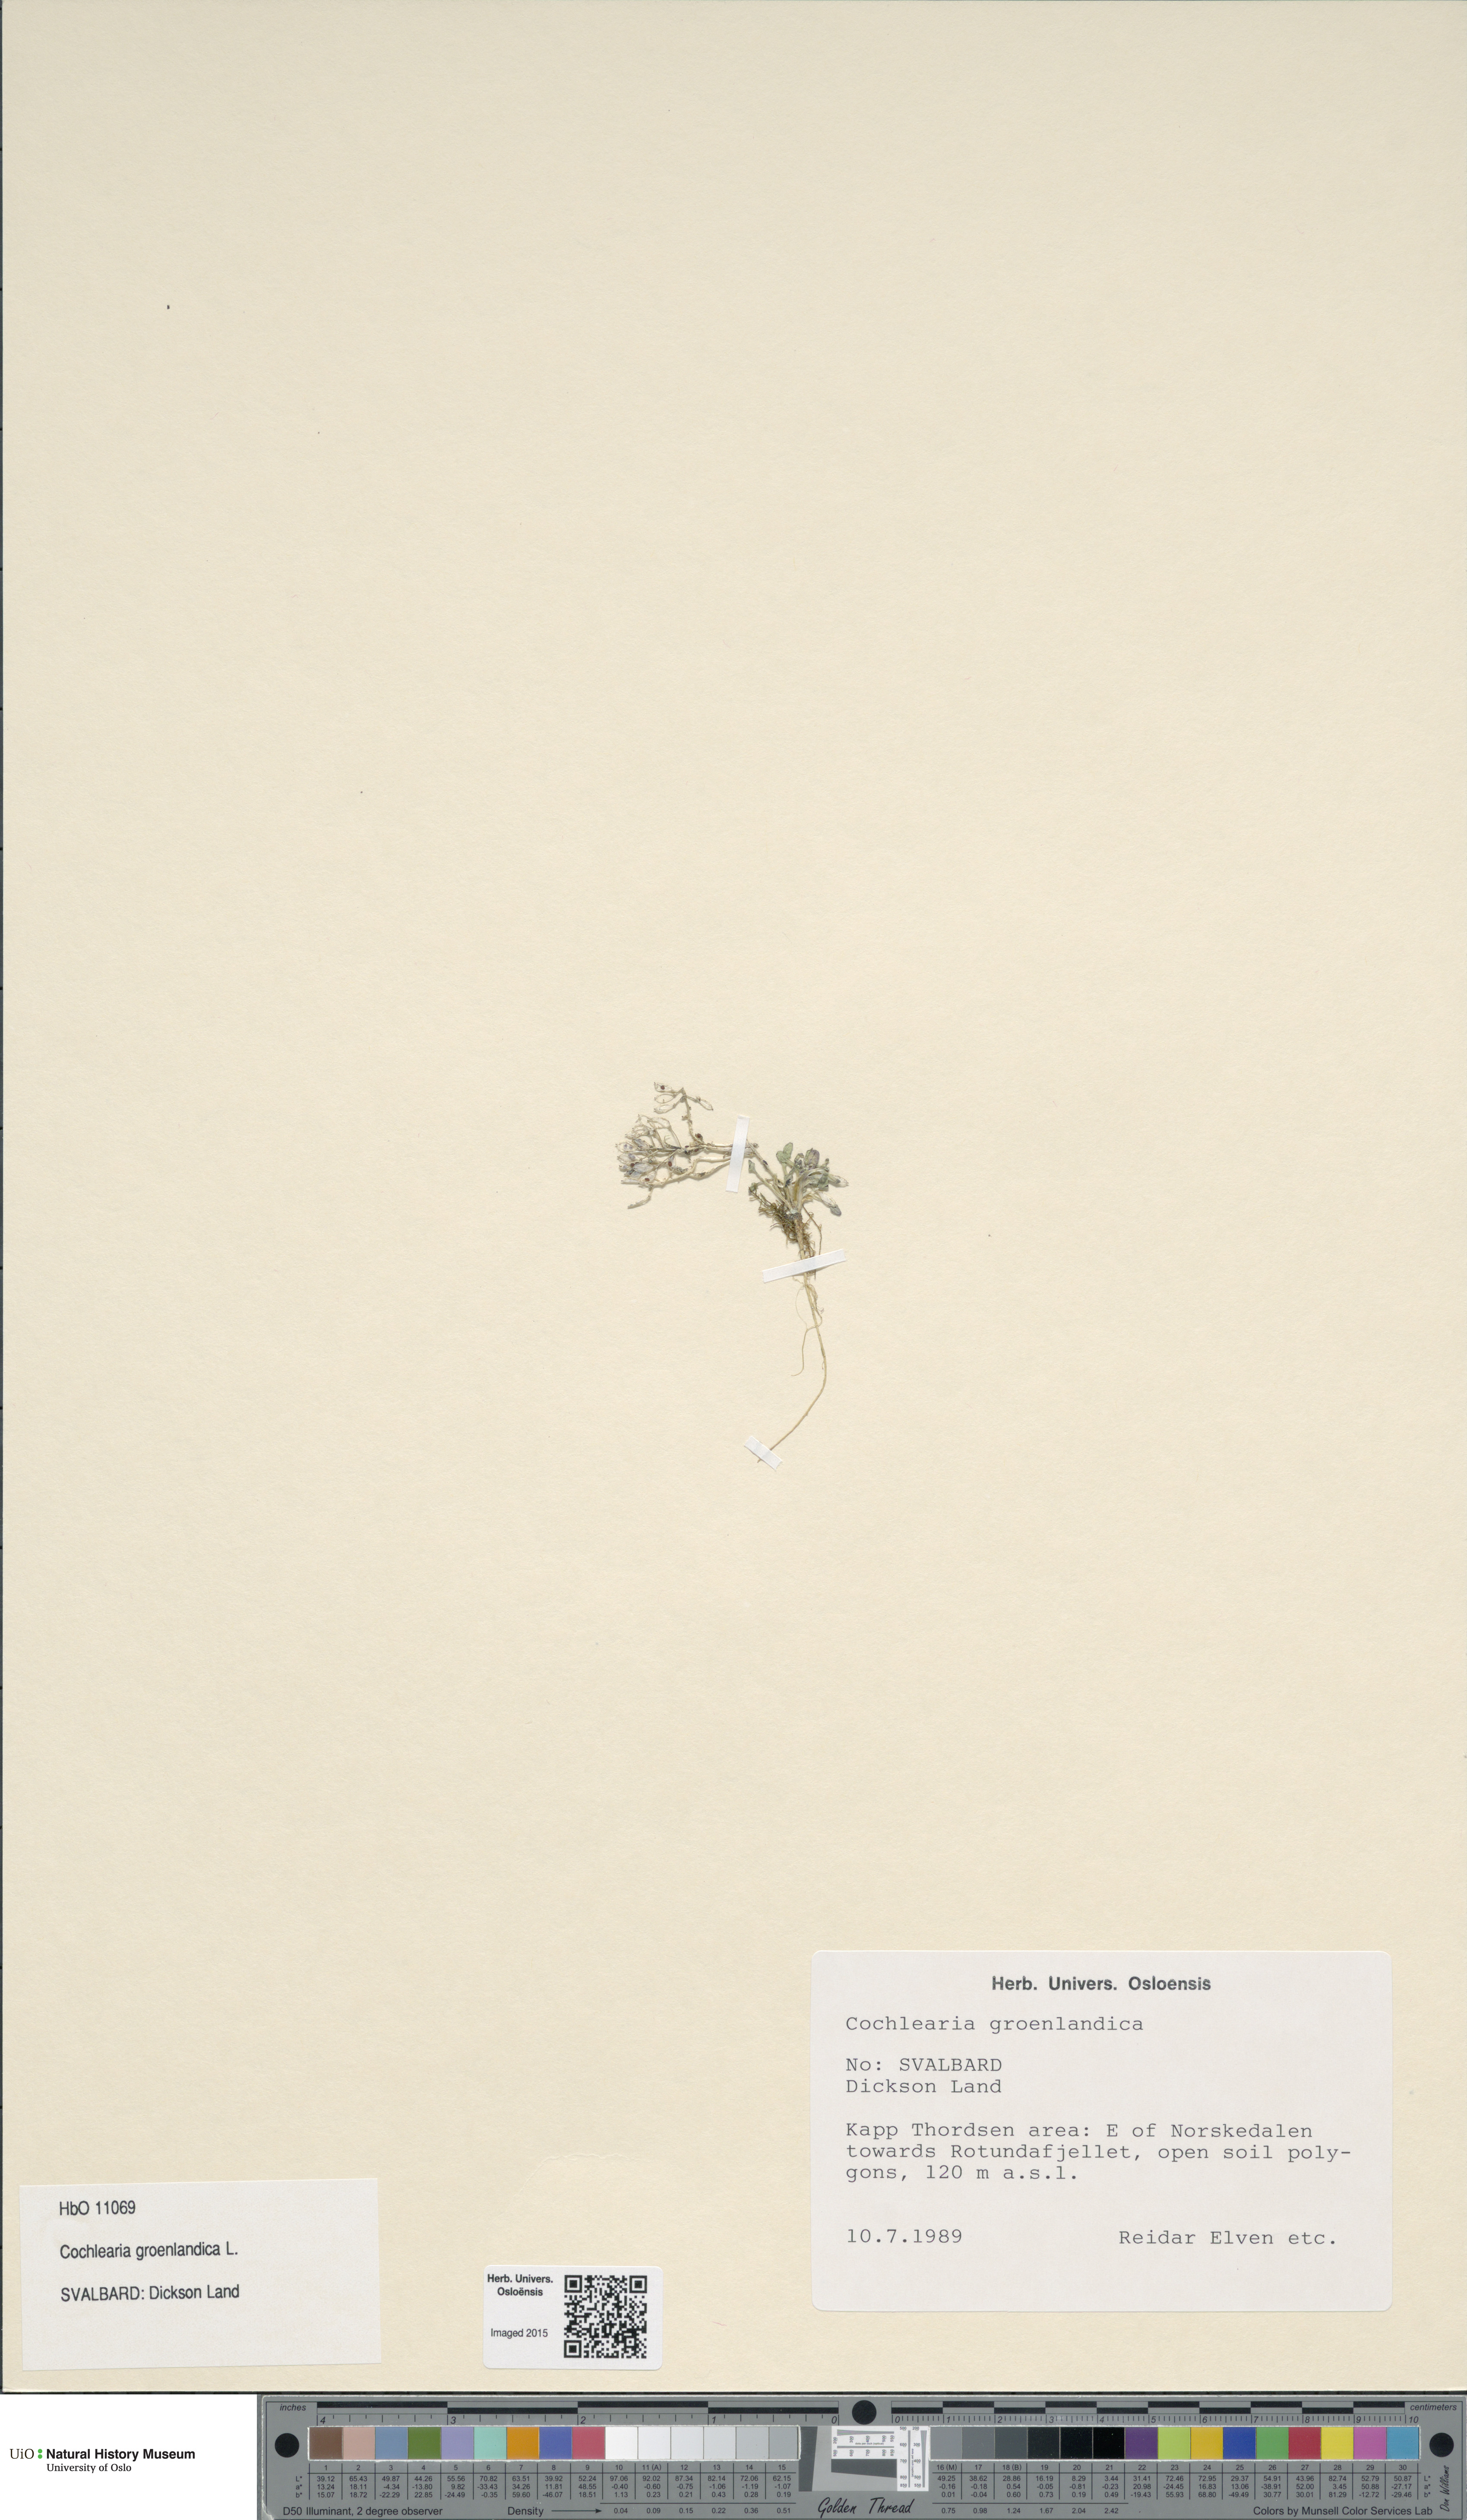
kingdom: Plantae
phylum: Tracheophyta
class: Magnoliopsida
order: Brassicales
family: Brassicaceae
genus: Cochlearia
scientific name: Cochlearia groenlandica
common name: Danish scurvygrass
